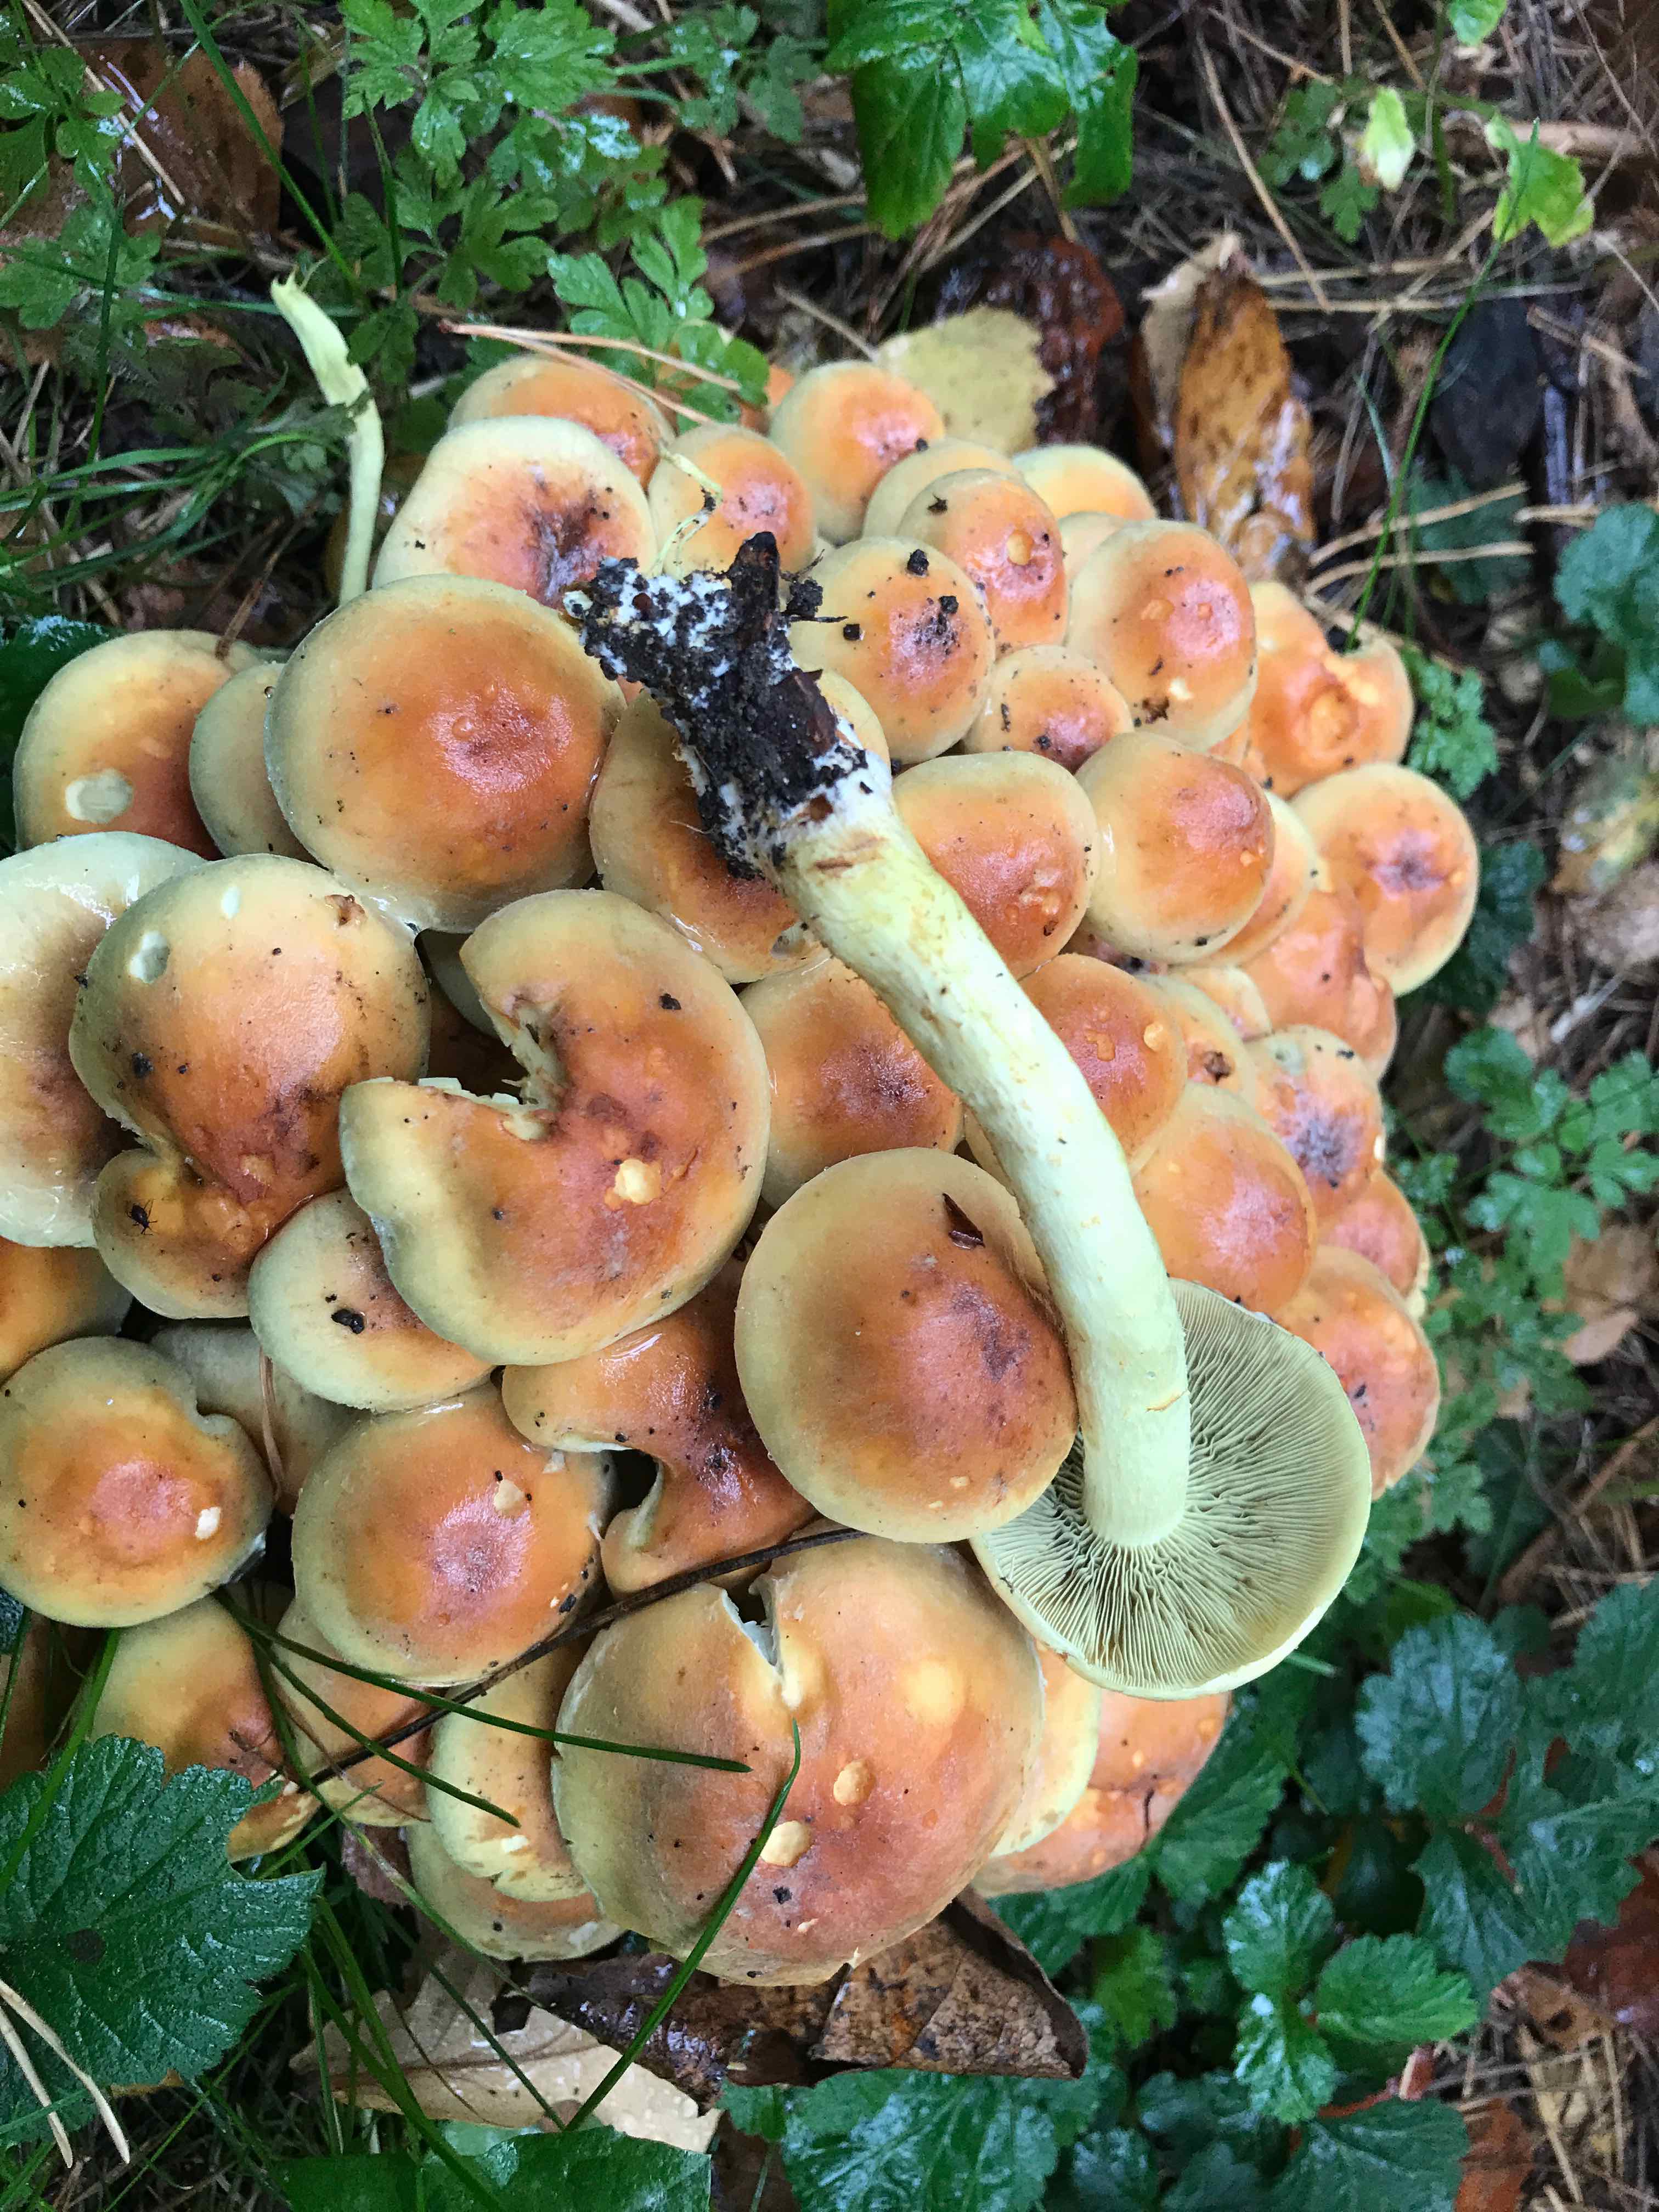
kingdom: Fungi
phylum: Basidiomycota
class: Agaricomycetes
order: Agaricales
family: Strophariaceae
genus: Hypholoma
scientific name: Hypholoma fasciculare
